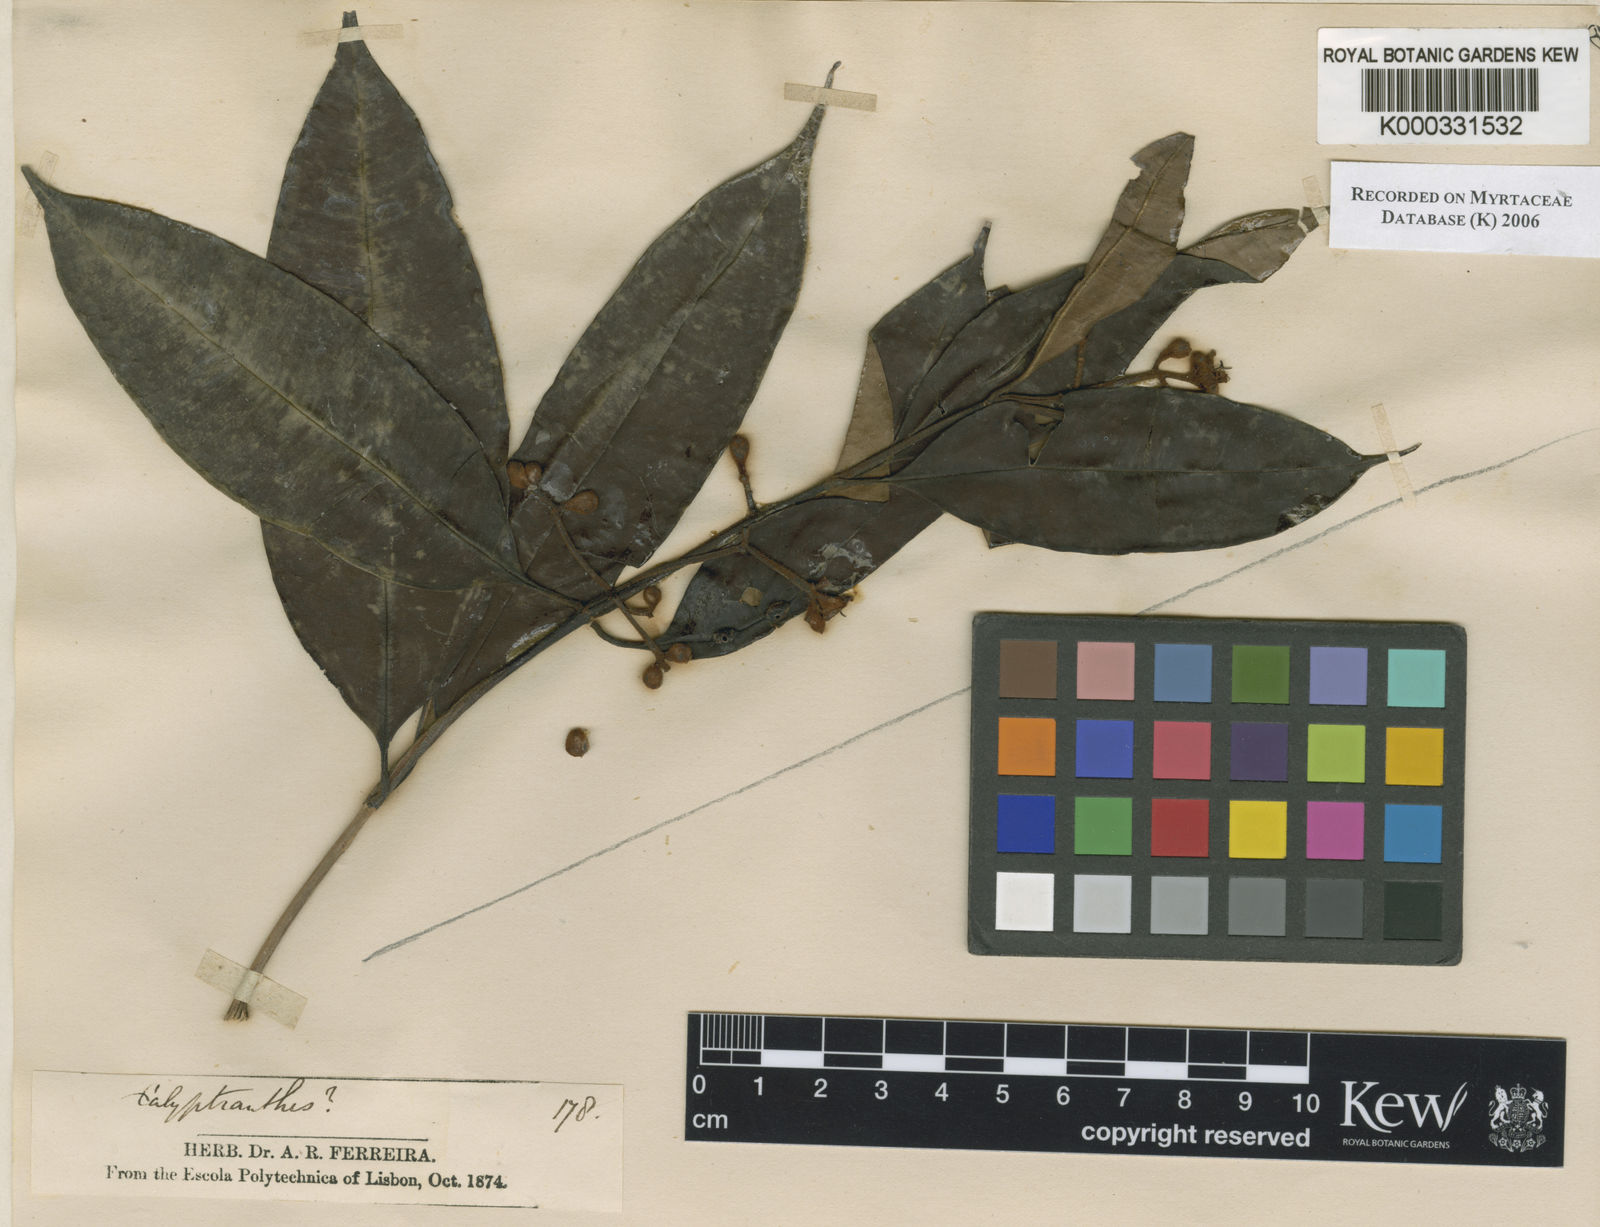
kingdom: Plantae
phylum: Tracheophyta
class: Magnoliopsida
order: Myrtales
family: Myrtaceae
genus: Psidium
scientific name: Psidium
